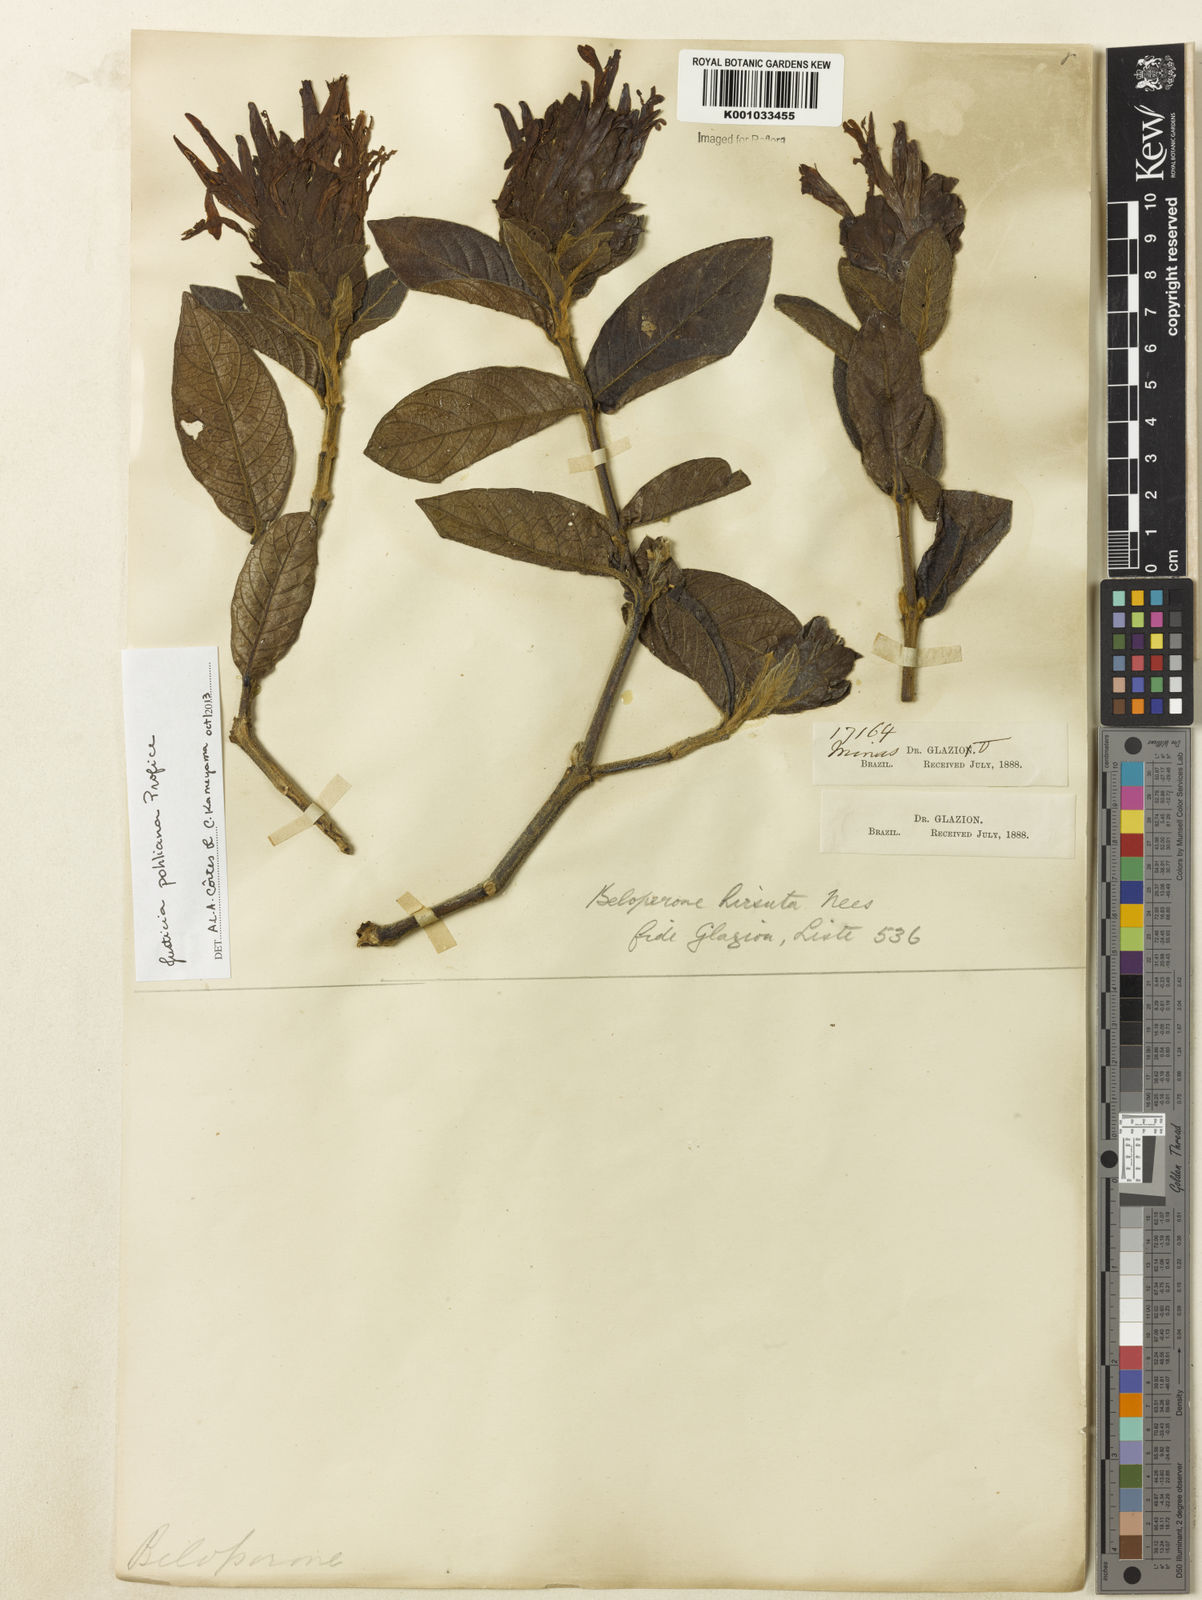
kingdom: Plantae
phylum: Tracheophyta
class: Magnoliopsida
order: Lamiales
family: Acanthaceae
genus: Justicia
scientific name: Justicia pohliana
